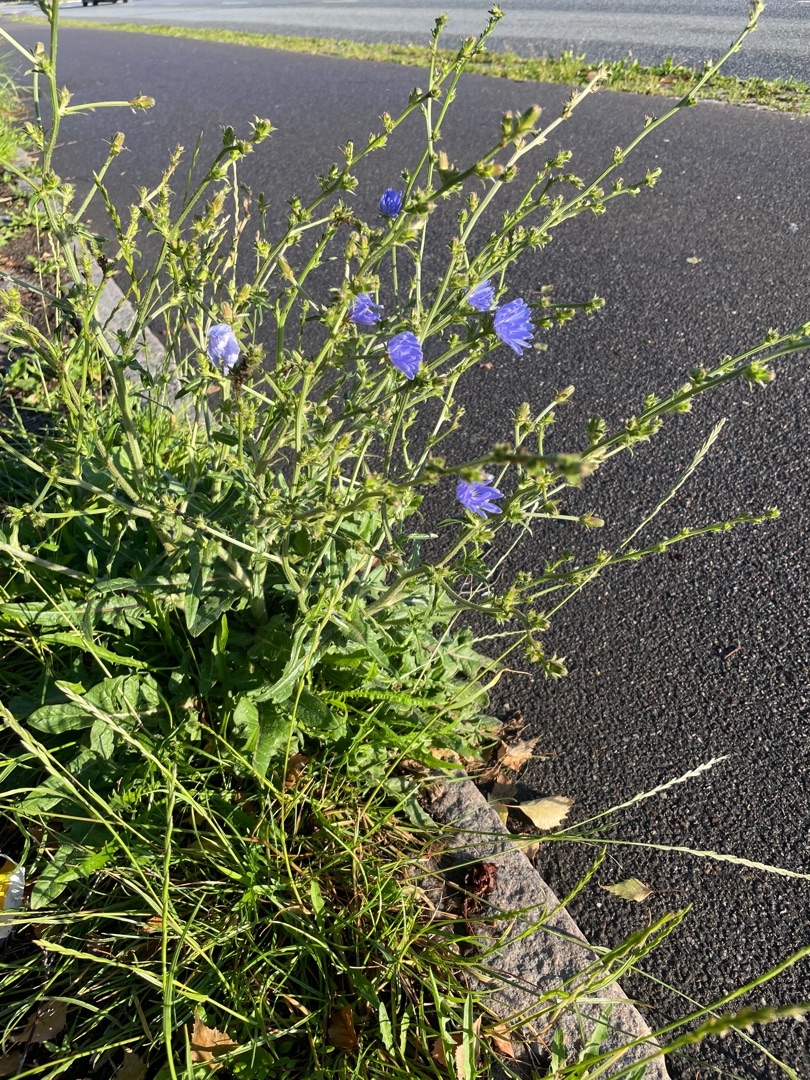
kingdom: Plantae
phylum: Tracheophyta
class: Magnoliopsida
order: Asterales
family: Asteraceae
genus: Cichorium
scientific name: Cichorium intybus
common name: Cikorie
